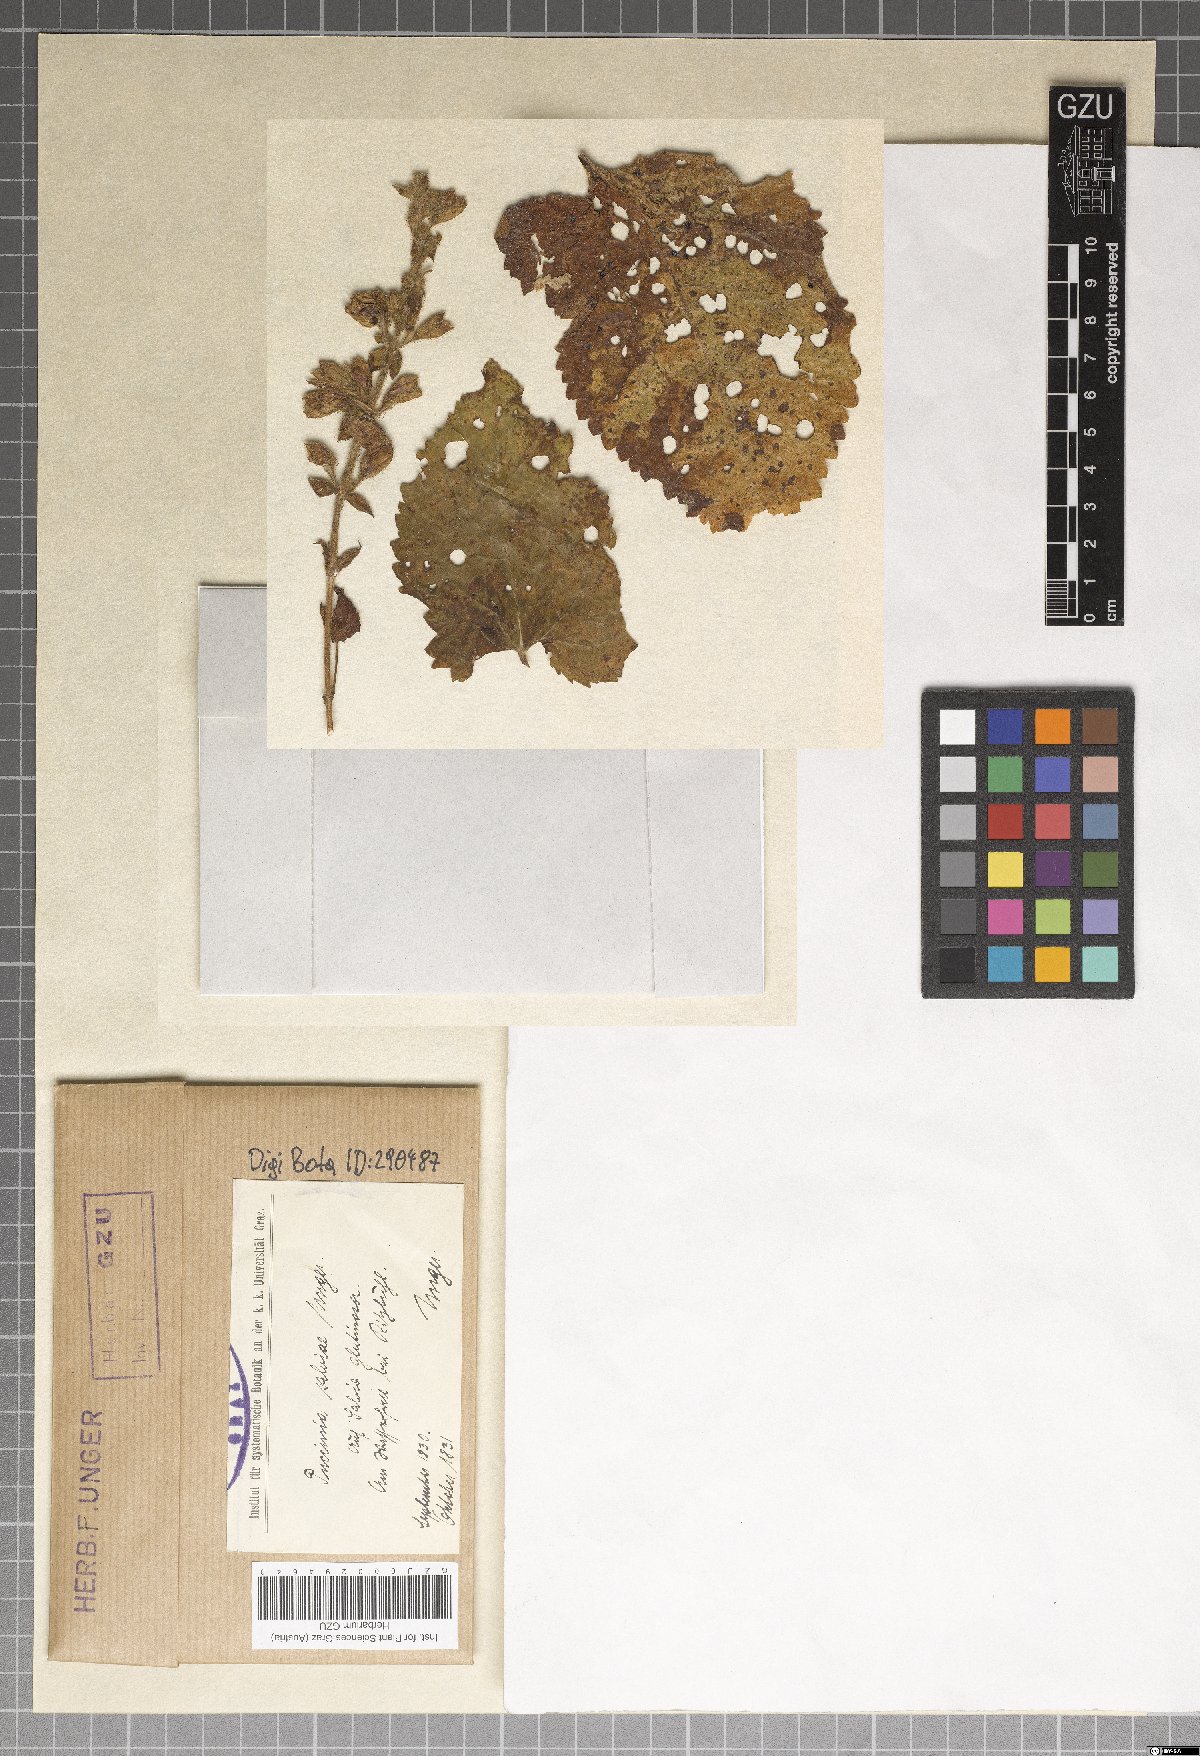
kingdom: Fungi
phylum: Basidiomycota
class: Pucciniomycetes
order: Pucciniales
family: Pucciniaceae
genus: Puccinia
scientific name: Puccinia salviae
